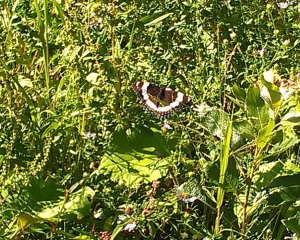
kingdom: Animalia
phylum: Arthropoda
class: Insecta
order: Lepidoptera
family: Nymphalidae
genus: Limenitis
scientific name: Limenitis arthemis
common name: Red-spotted Admiral
